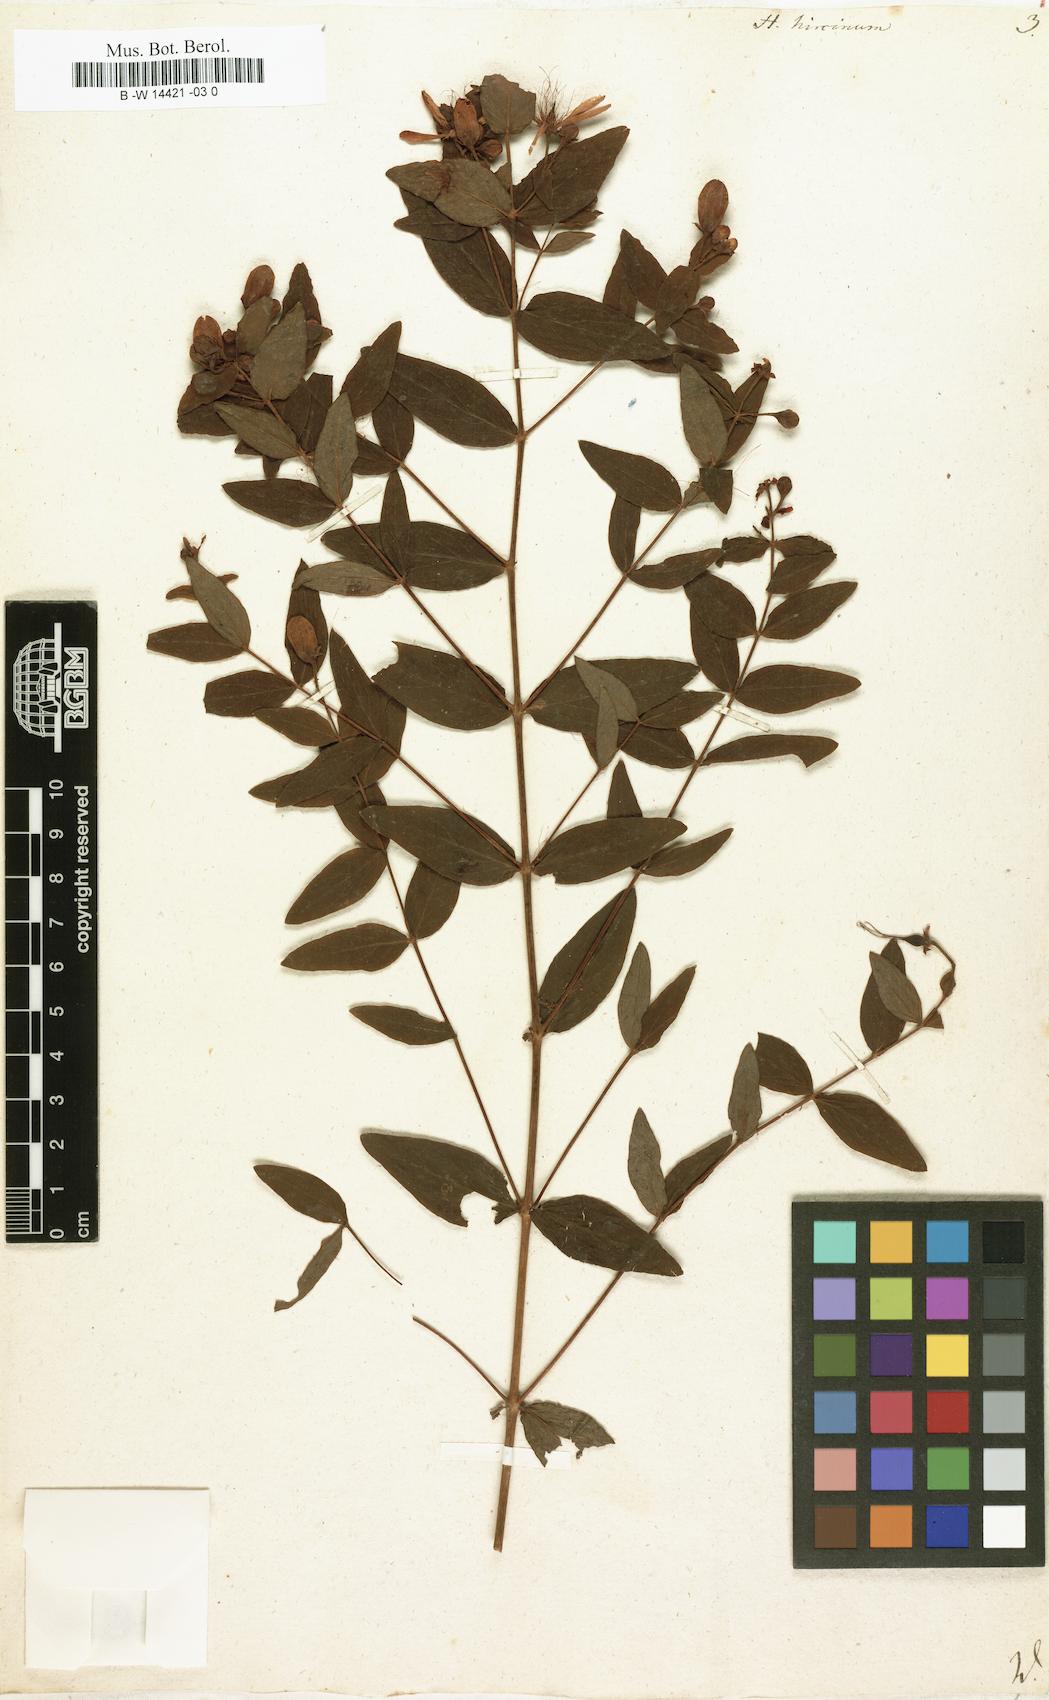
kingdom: Plantae
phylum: Tracheophyta
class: Magnoliopsida
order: Malpighiales
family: Hypericaceae
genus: Hypericum
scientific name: Hypericum hircinum
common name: Stinking tutsan
